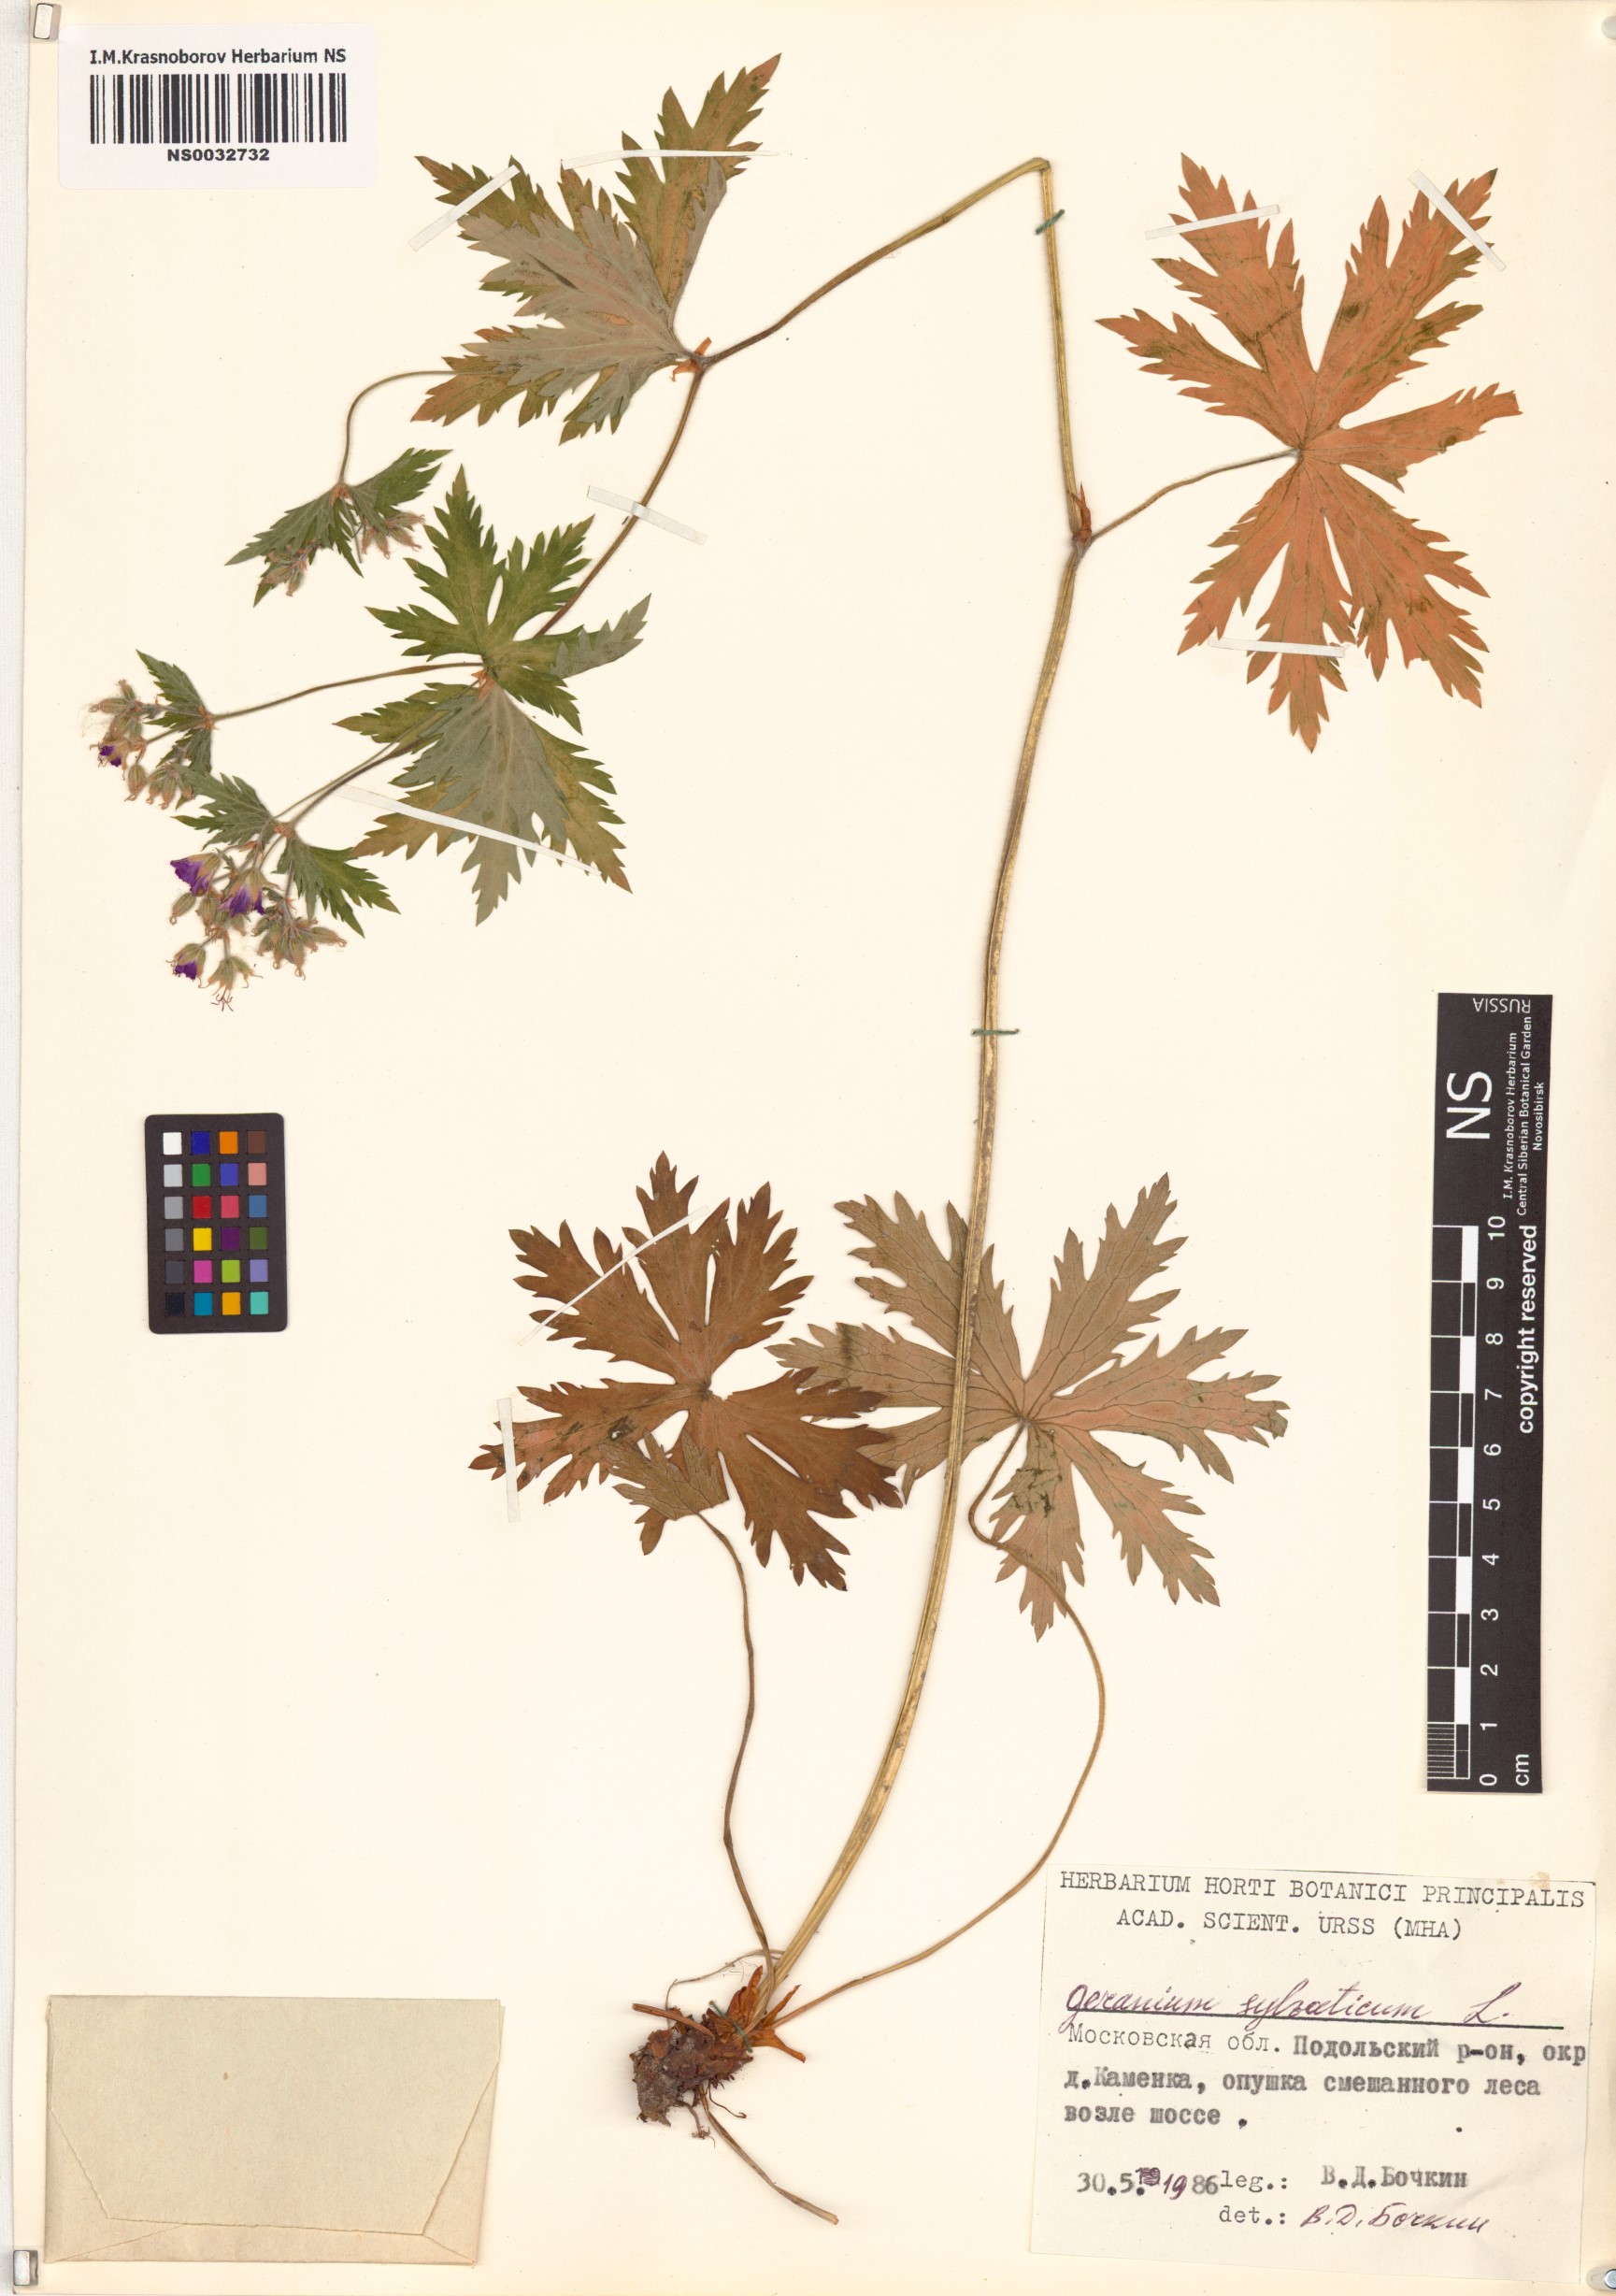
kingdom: Plantae
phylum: Tracheophyta
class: Magnoliopsida
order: Geraniales
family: Geraniaceae
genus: Geranium
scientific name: Geranium sylvaticum
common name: Wood crane's-bill
